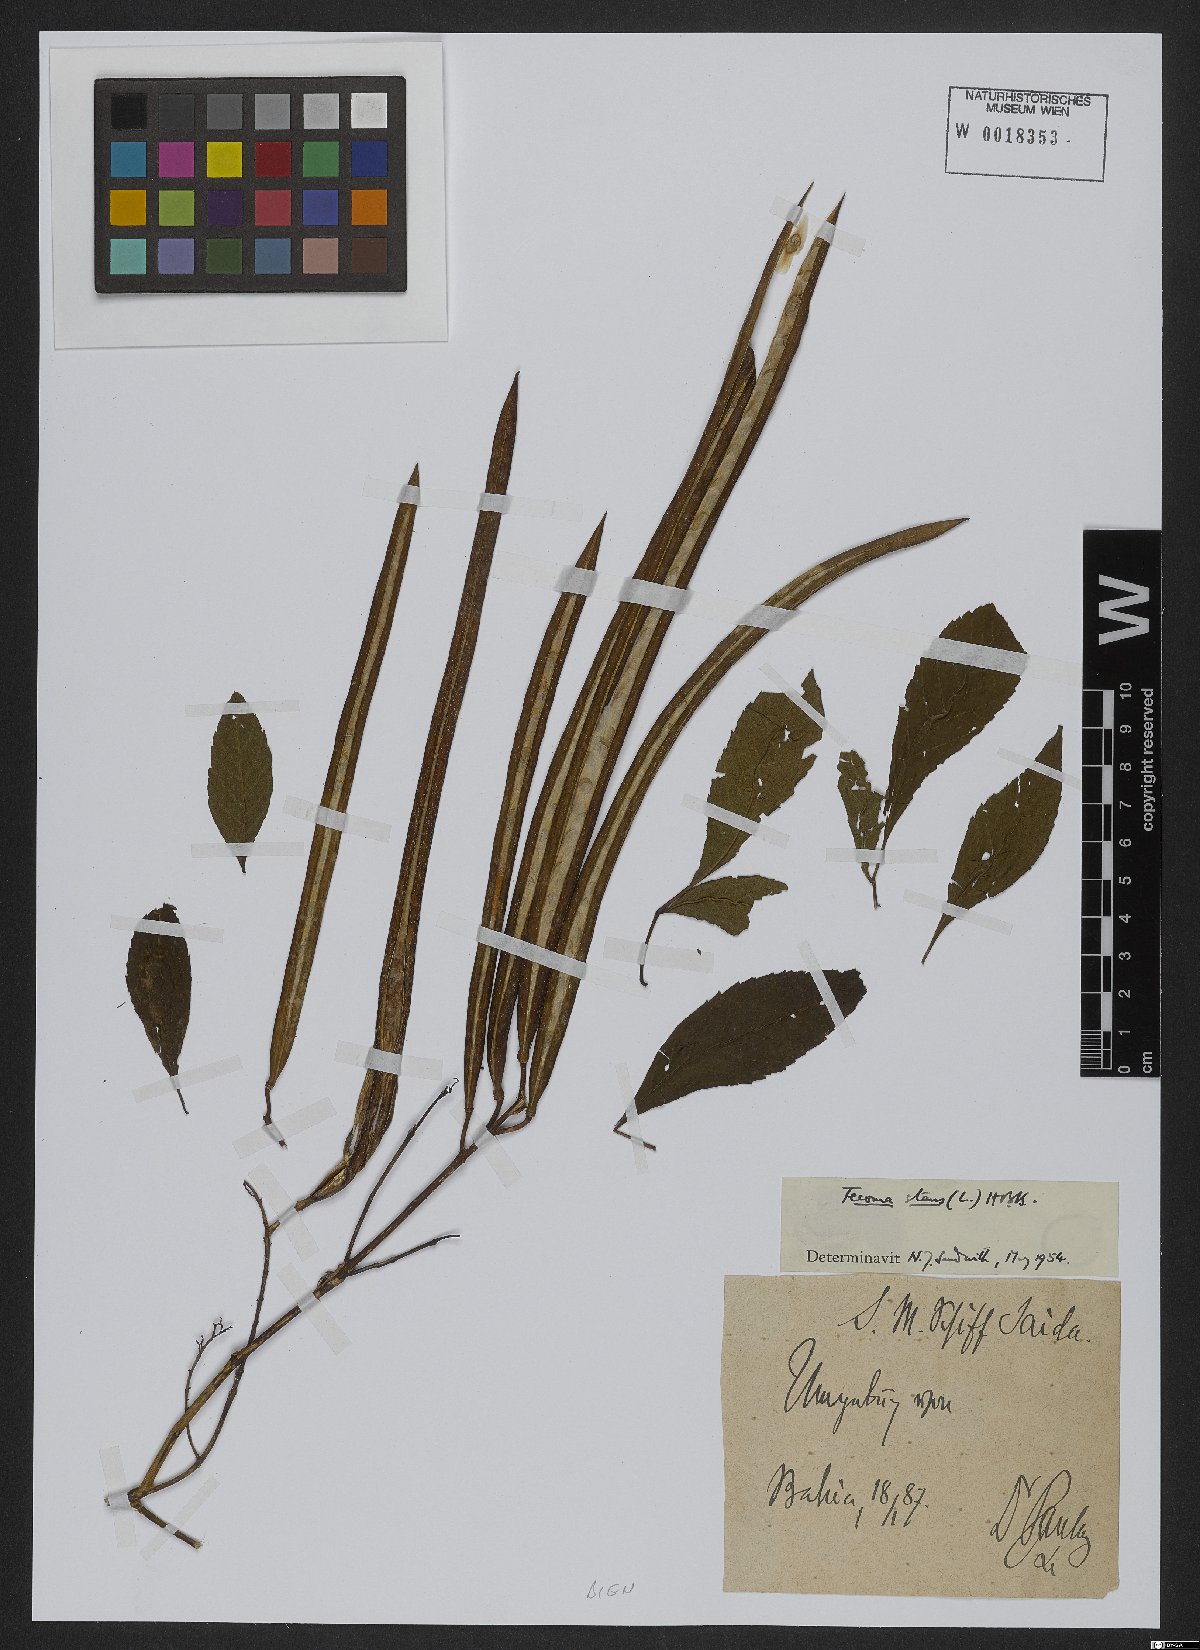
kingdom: Plantae
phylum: Tracheophyta
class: Magnoliopsida
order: Lamiales
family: Bignoniaceae
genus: Tecoma
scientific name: Tecoma stans
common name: Yellow trumpetbush
